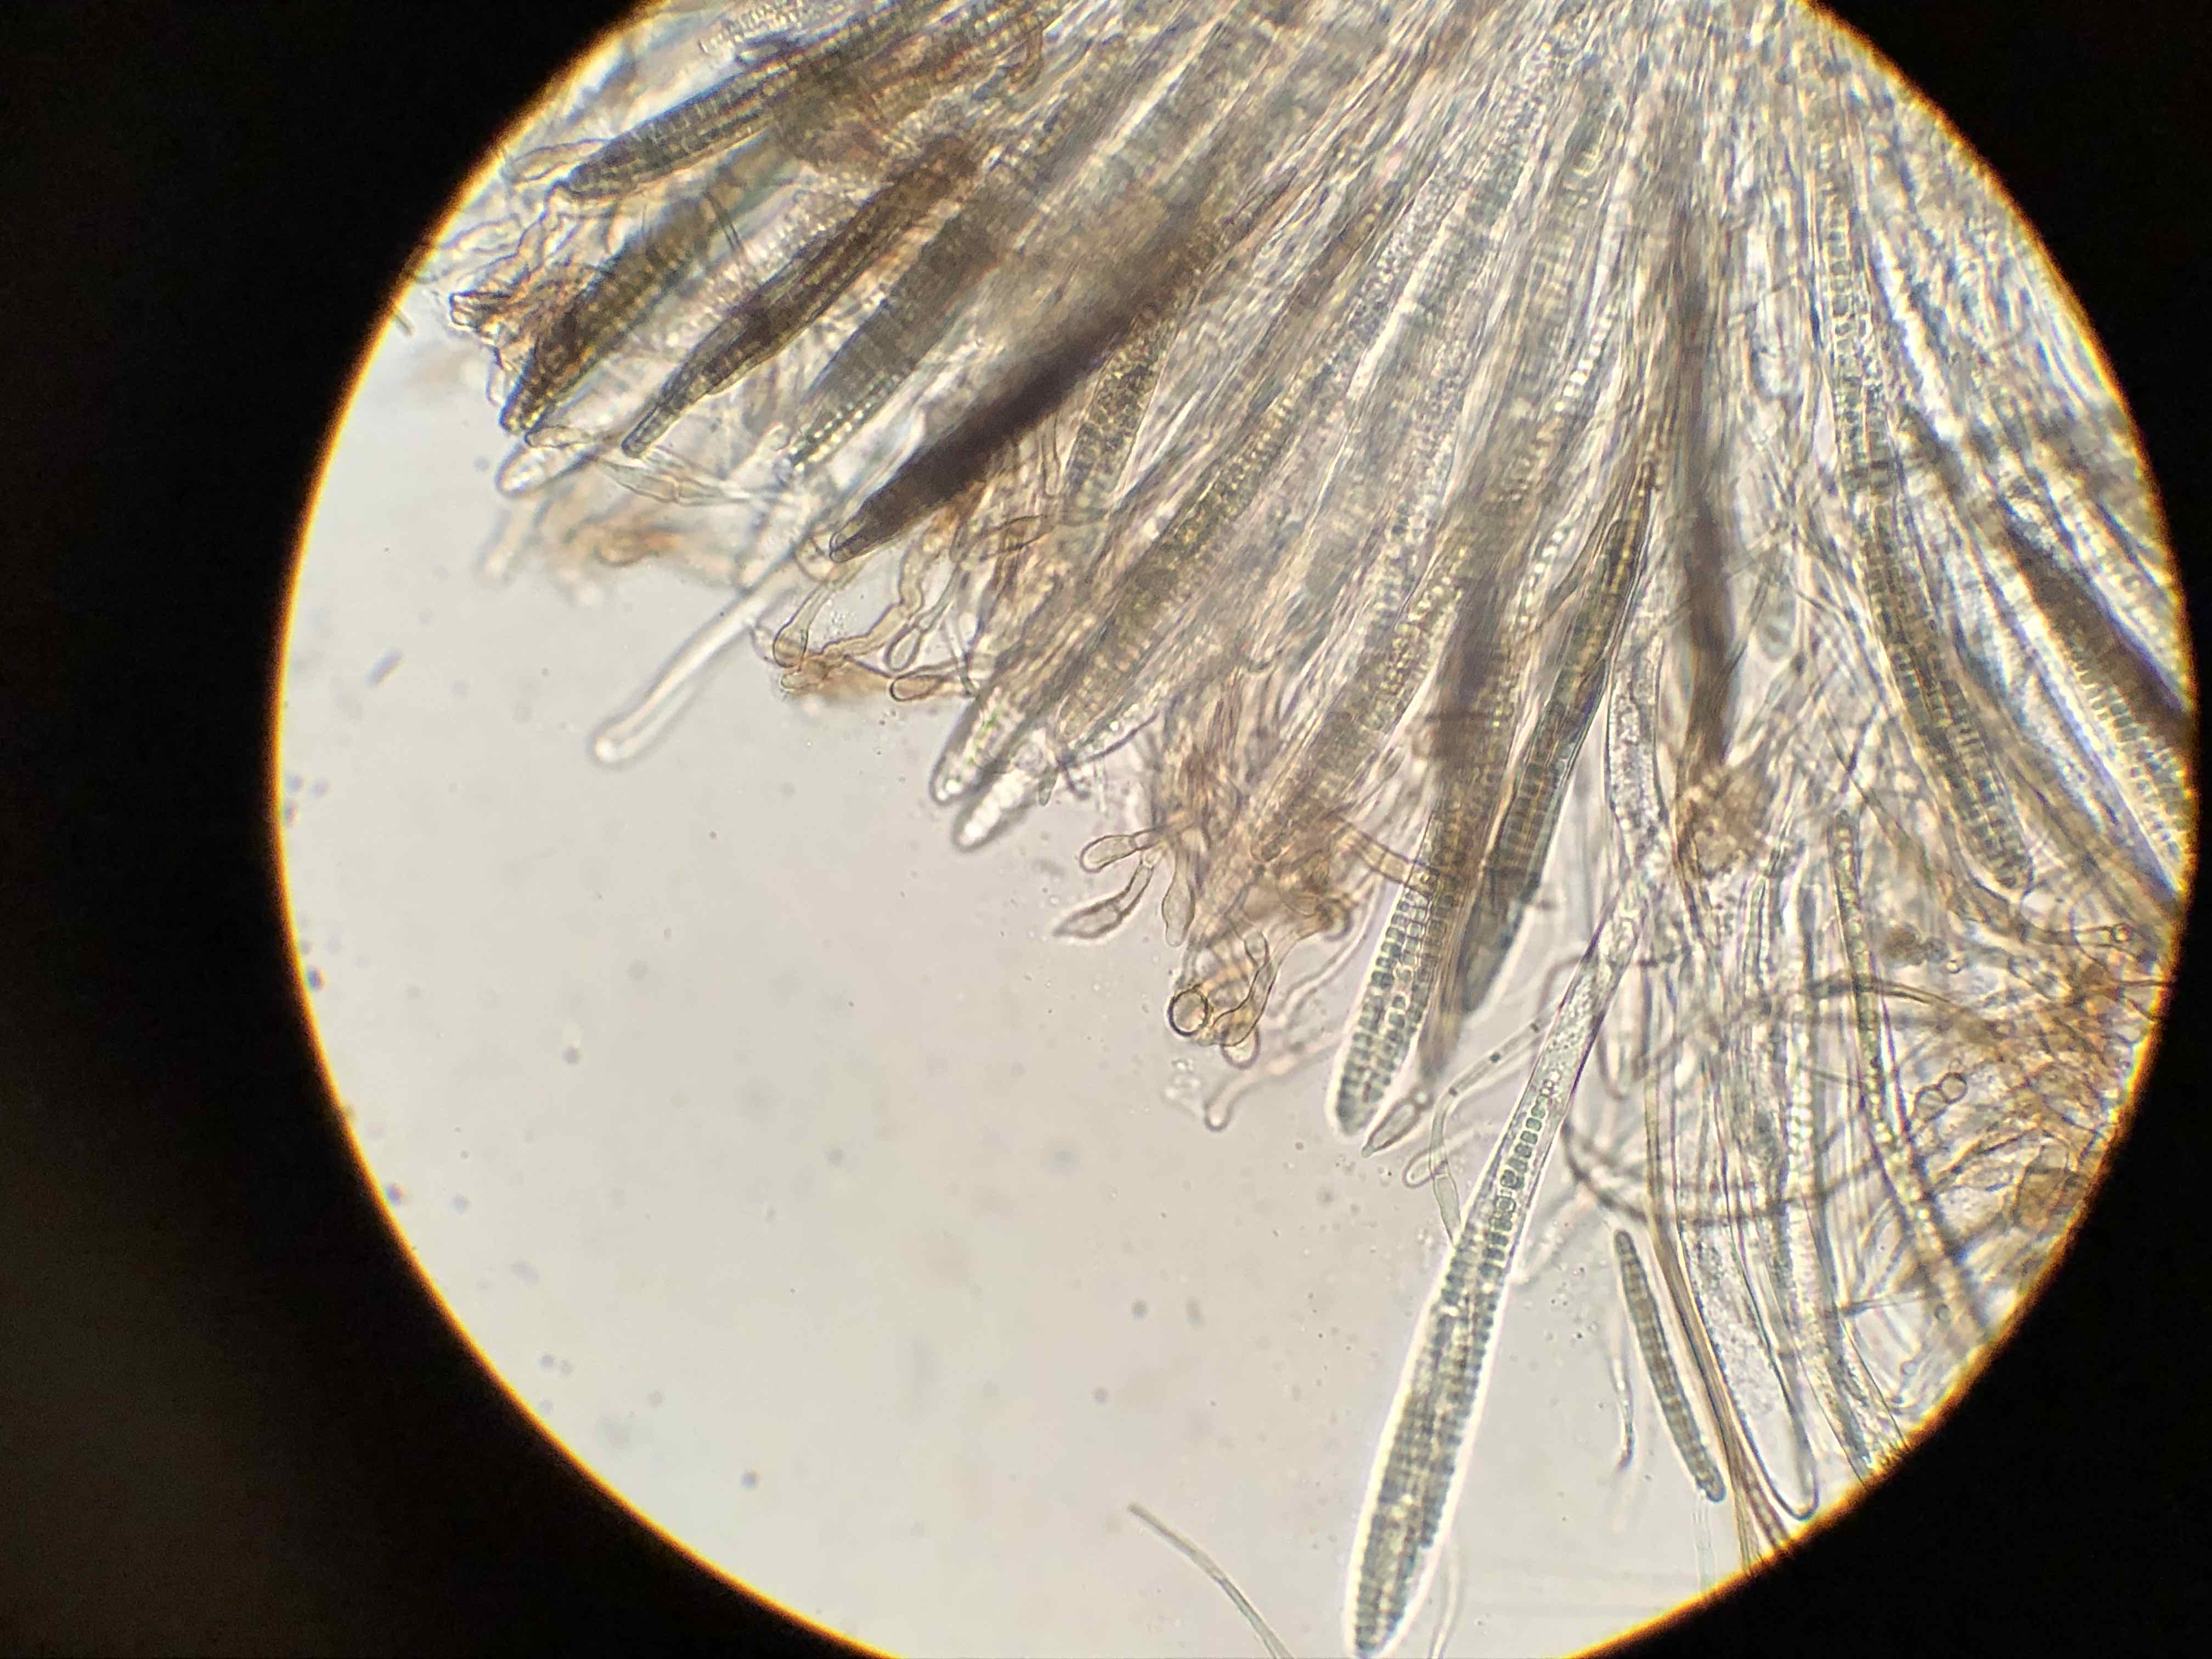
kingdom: Fungi
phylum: Ascomycota
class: Geoglossomycetes
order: Geoglossales
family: Geoglossaceae
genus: Glutinoglossum
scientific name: Glutinoglossum glutinosum
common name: slimet jordtunge
